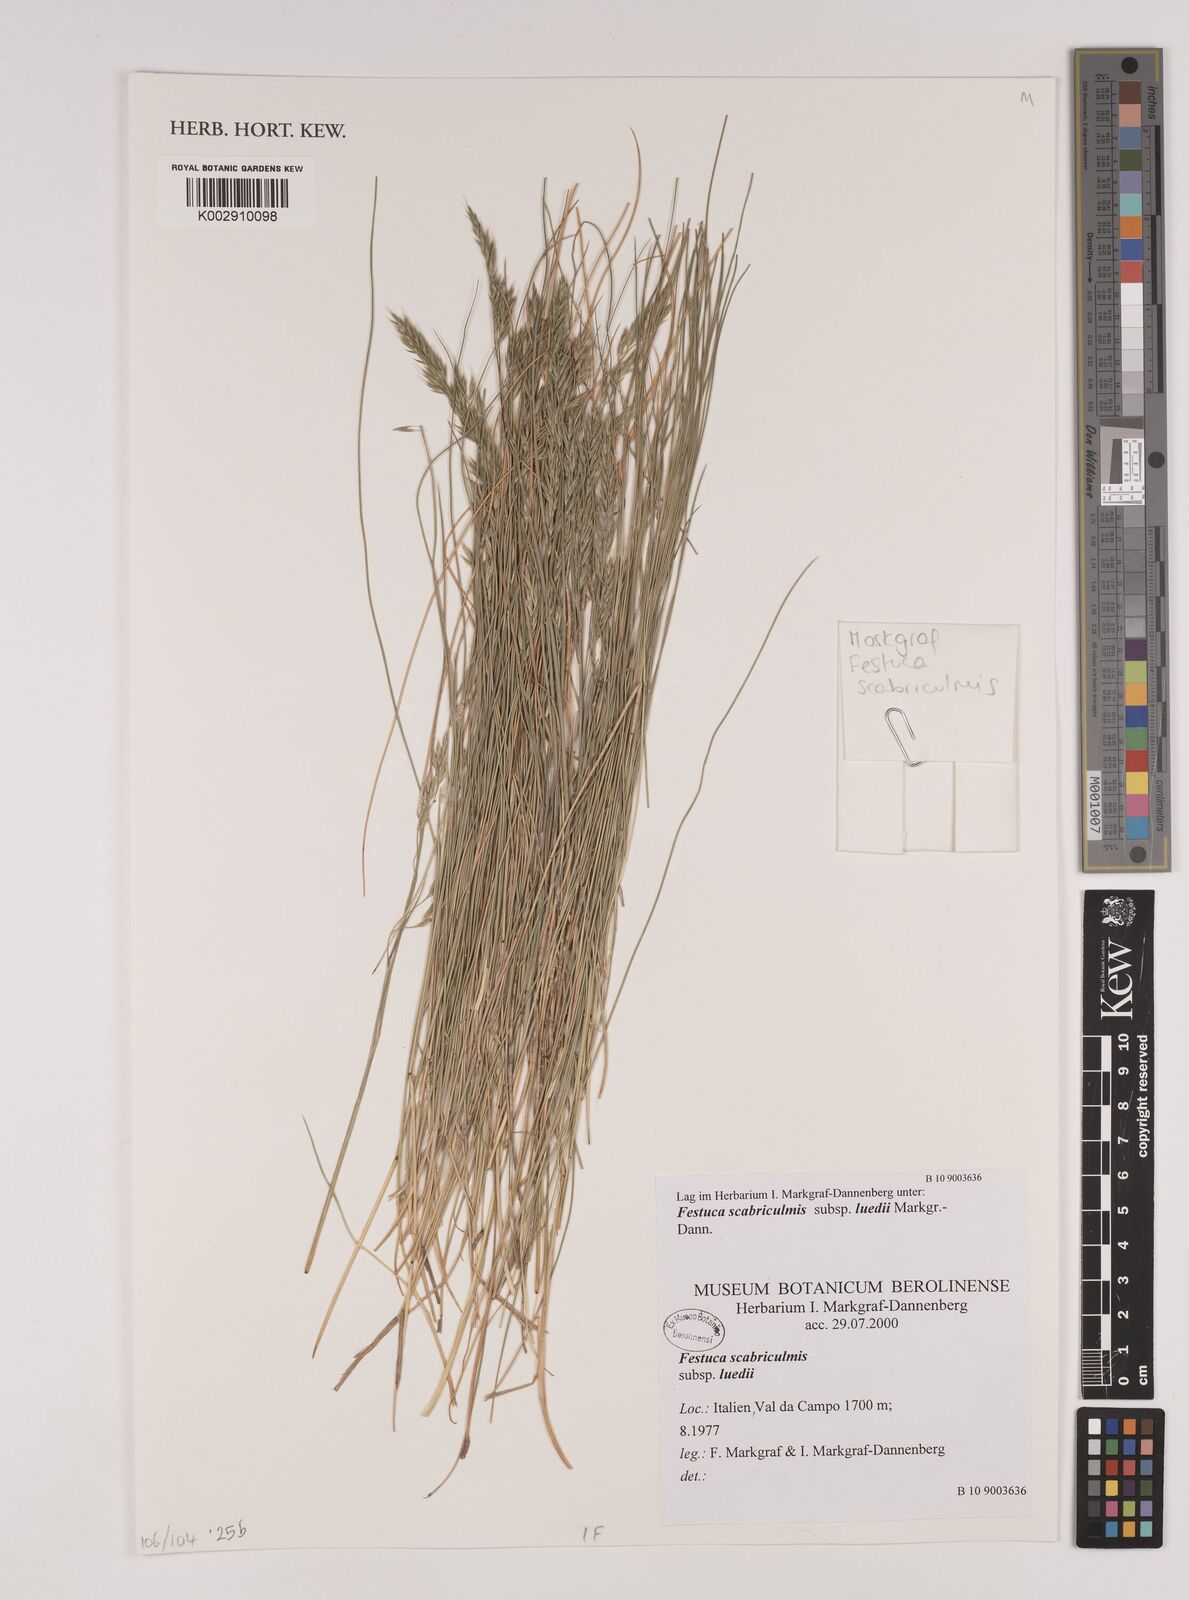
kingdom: Plantae
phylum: Tracheophyta
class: Liliopsida
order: Poales
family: Poaceae
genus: Festuca
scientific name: Festuca scabriculmis
